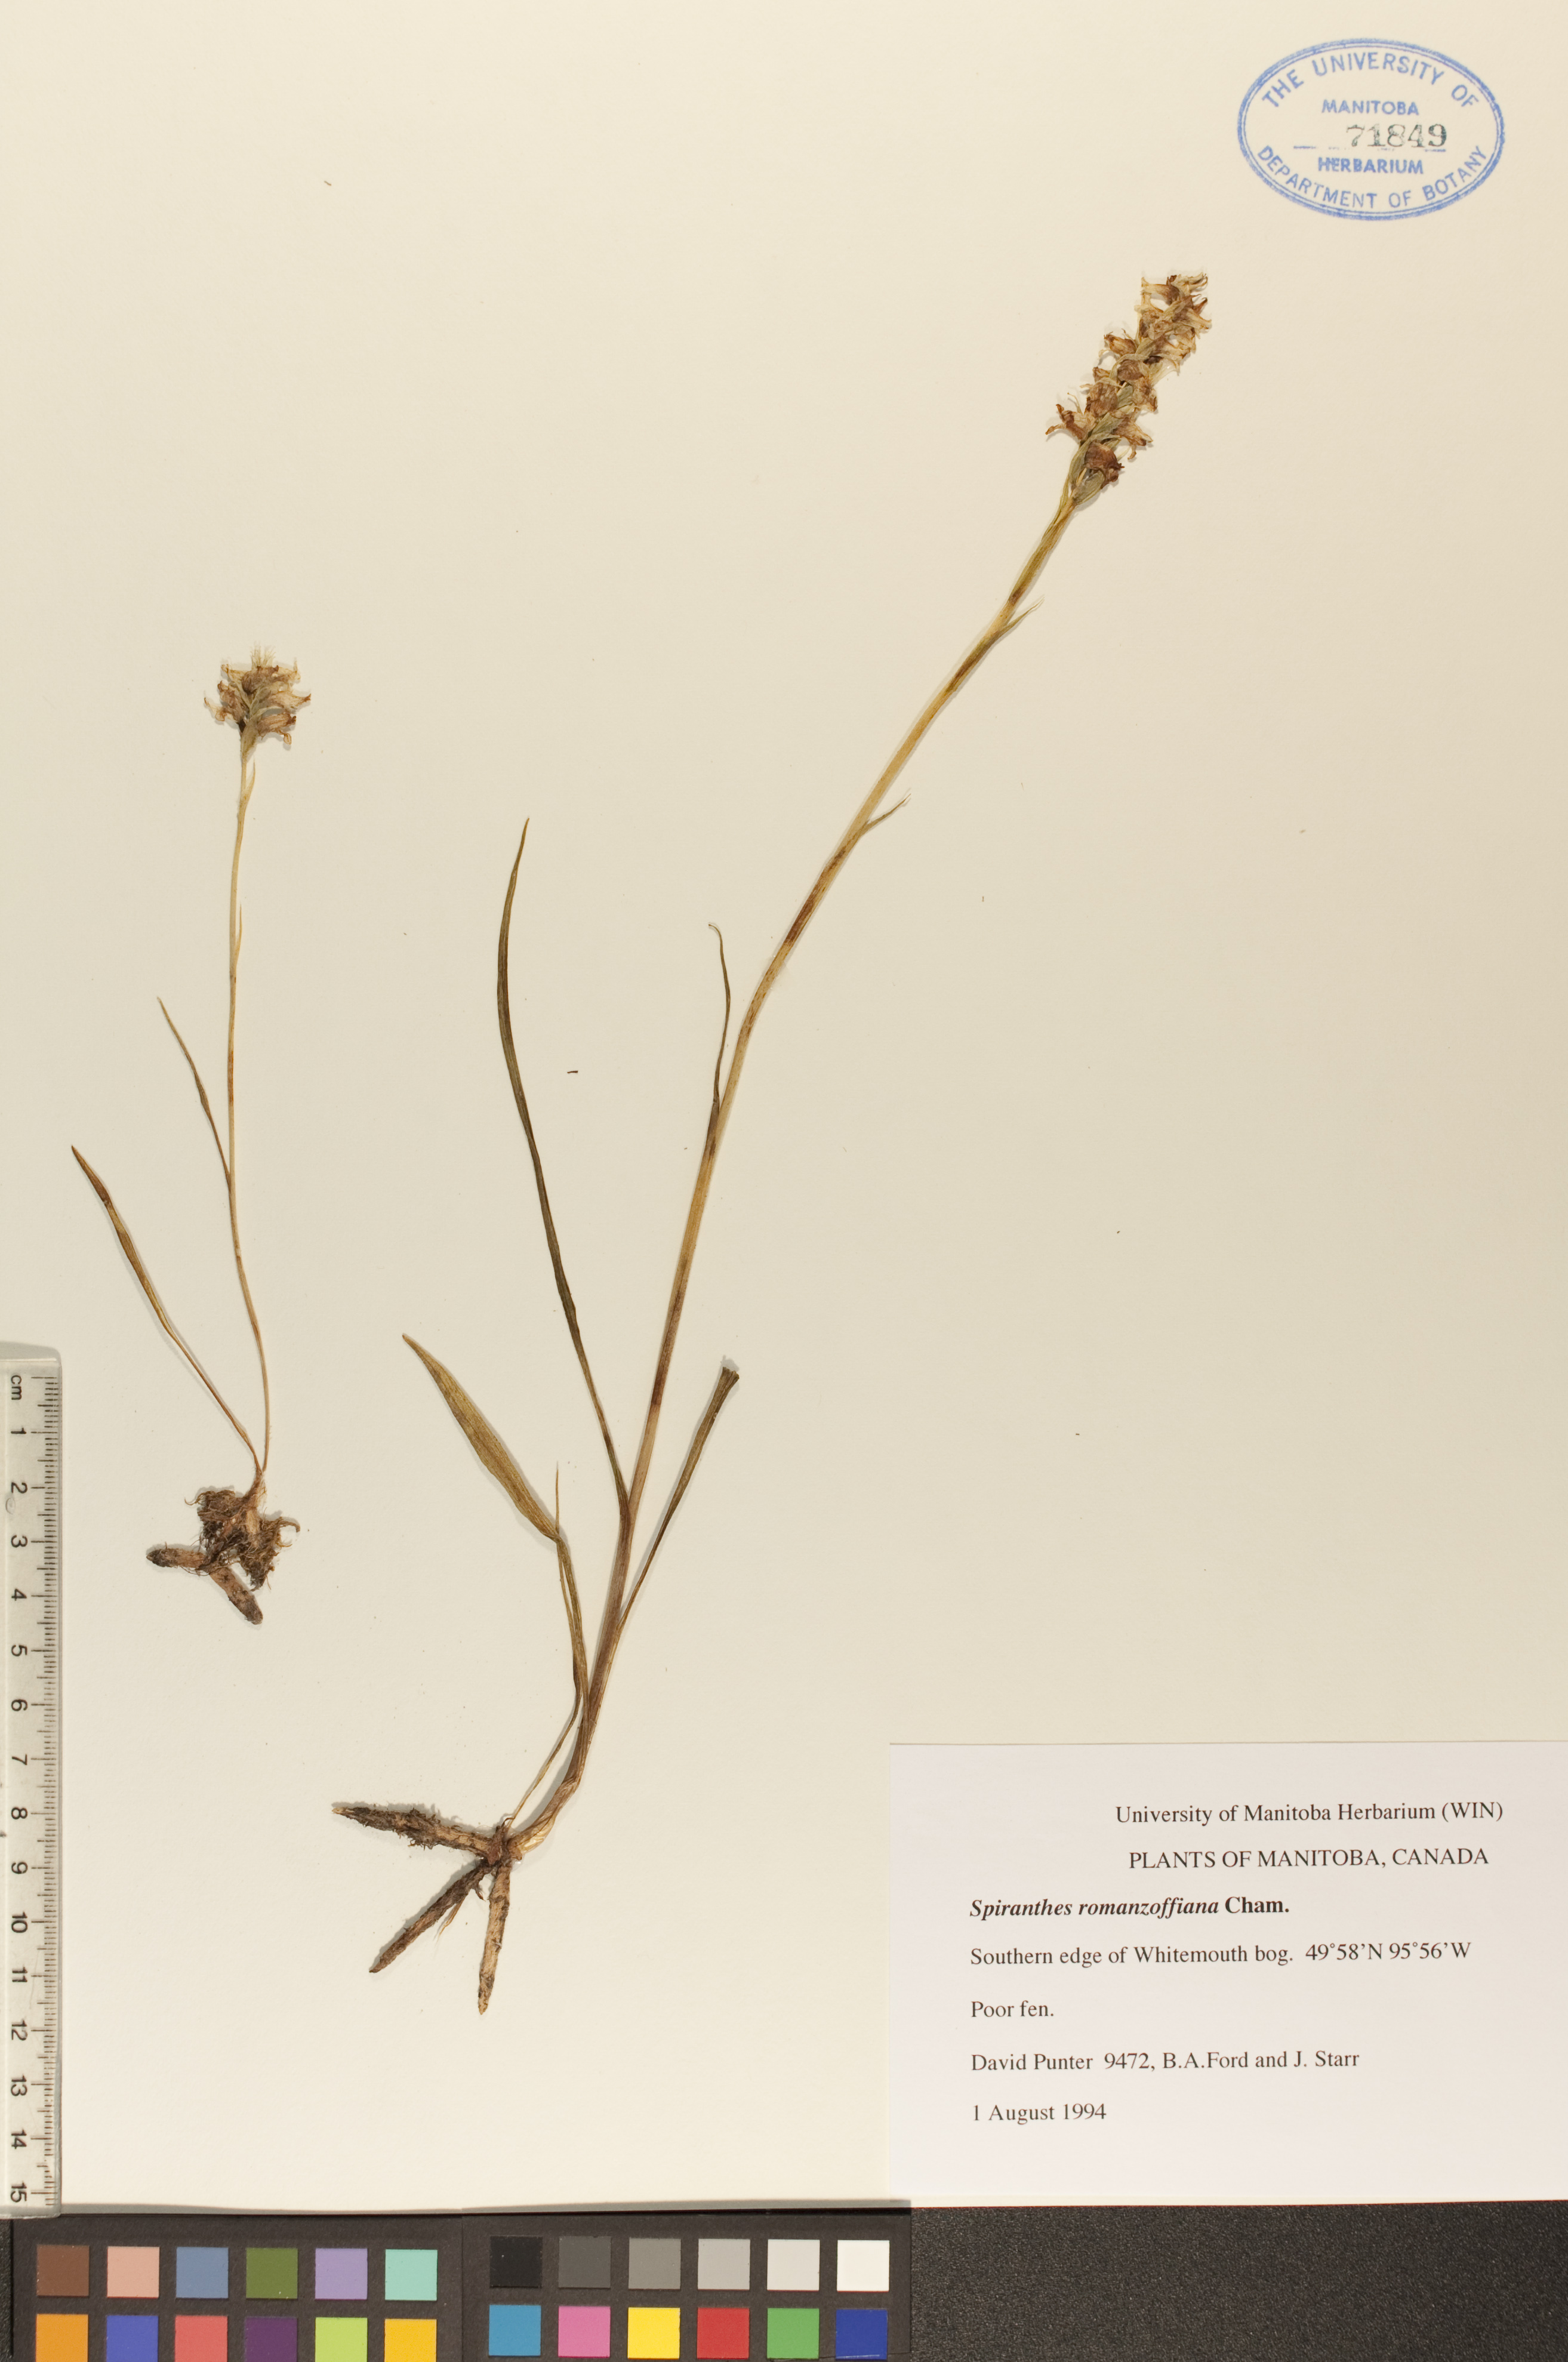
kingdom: Plantae
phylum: Tracheophyta
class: Liliopsida
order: Asparagales
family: Orchidaceae
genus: Spiranthes
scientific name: Spiranthes romanzoffiana
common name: Irish lady's-tresses
